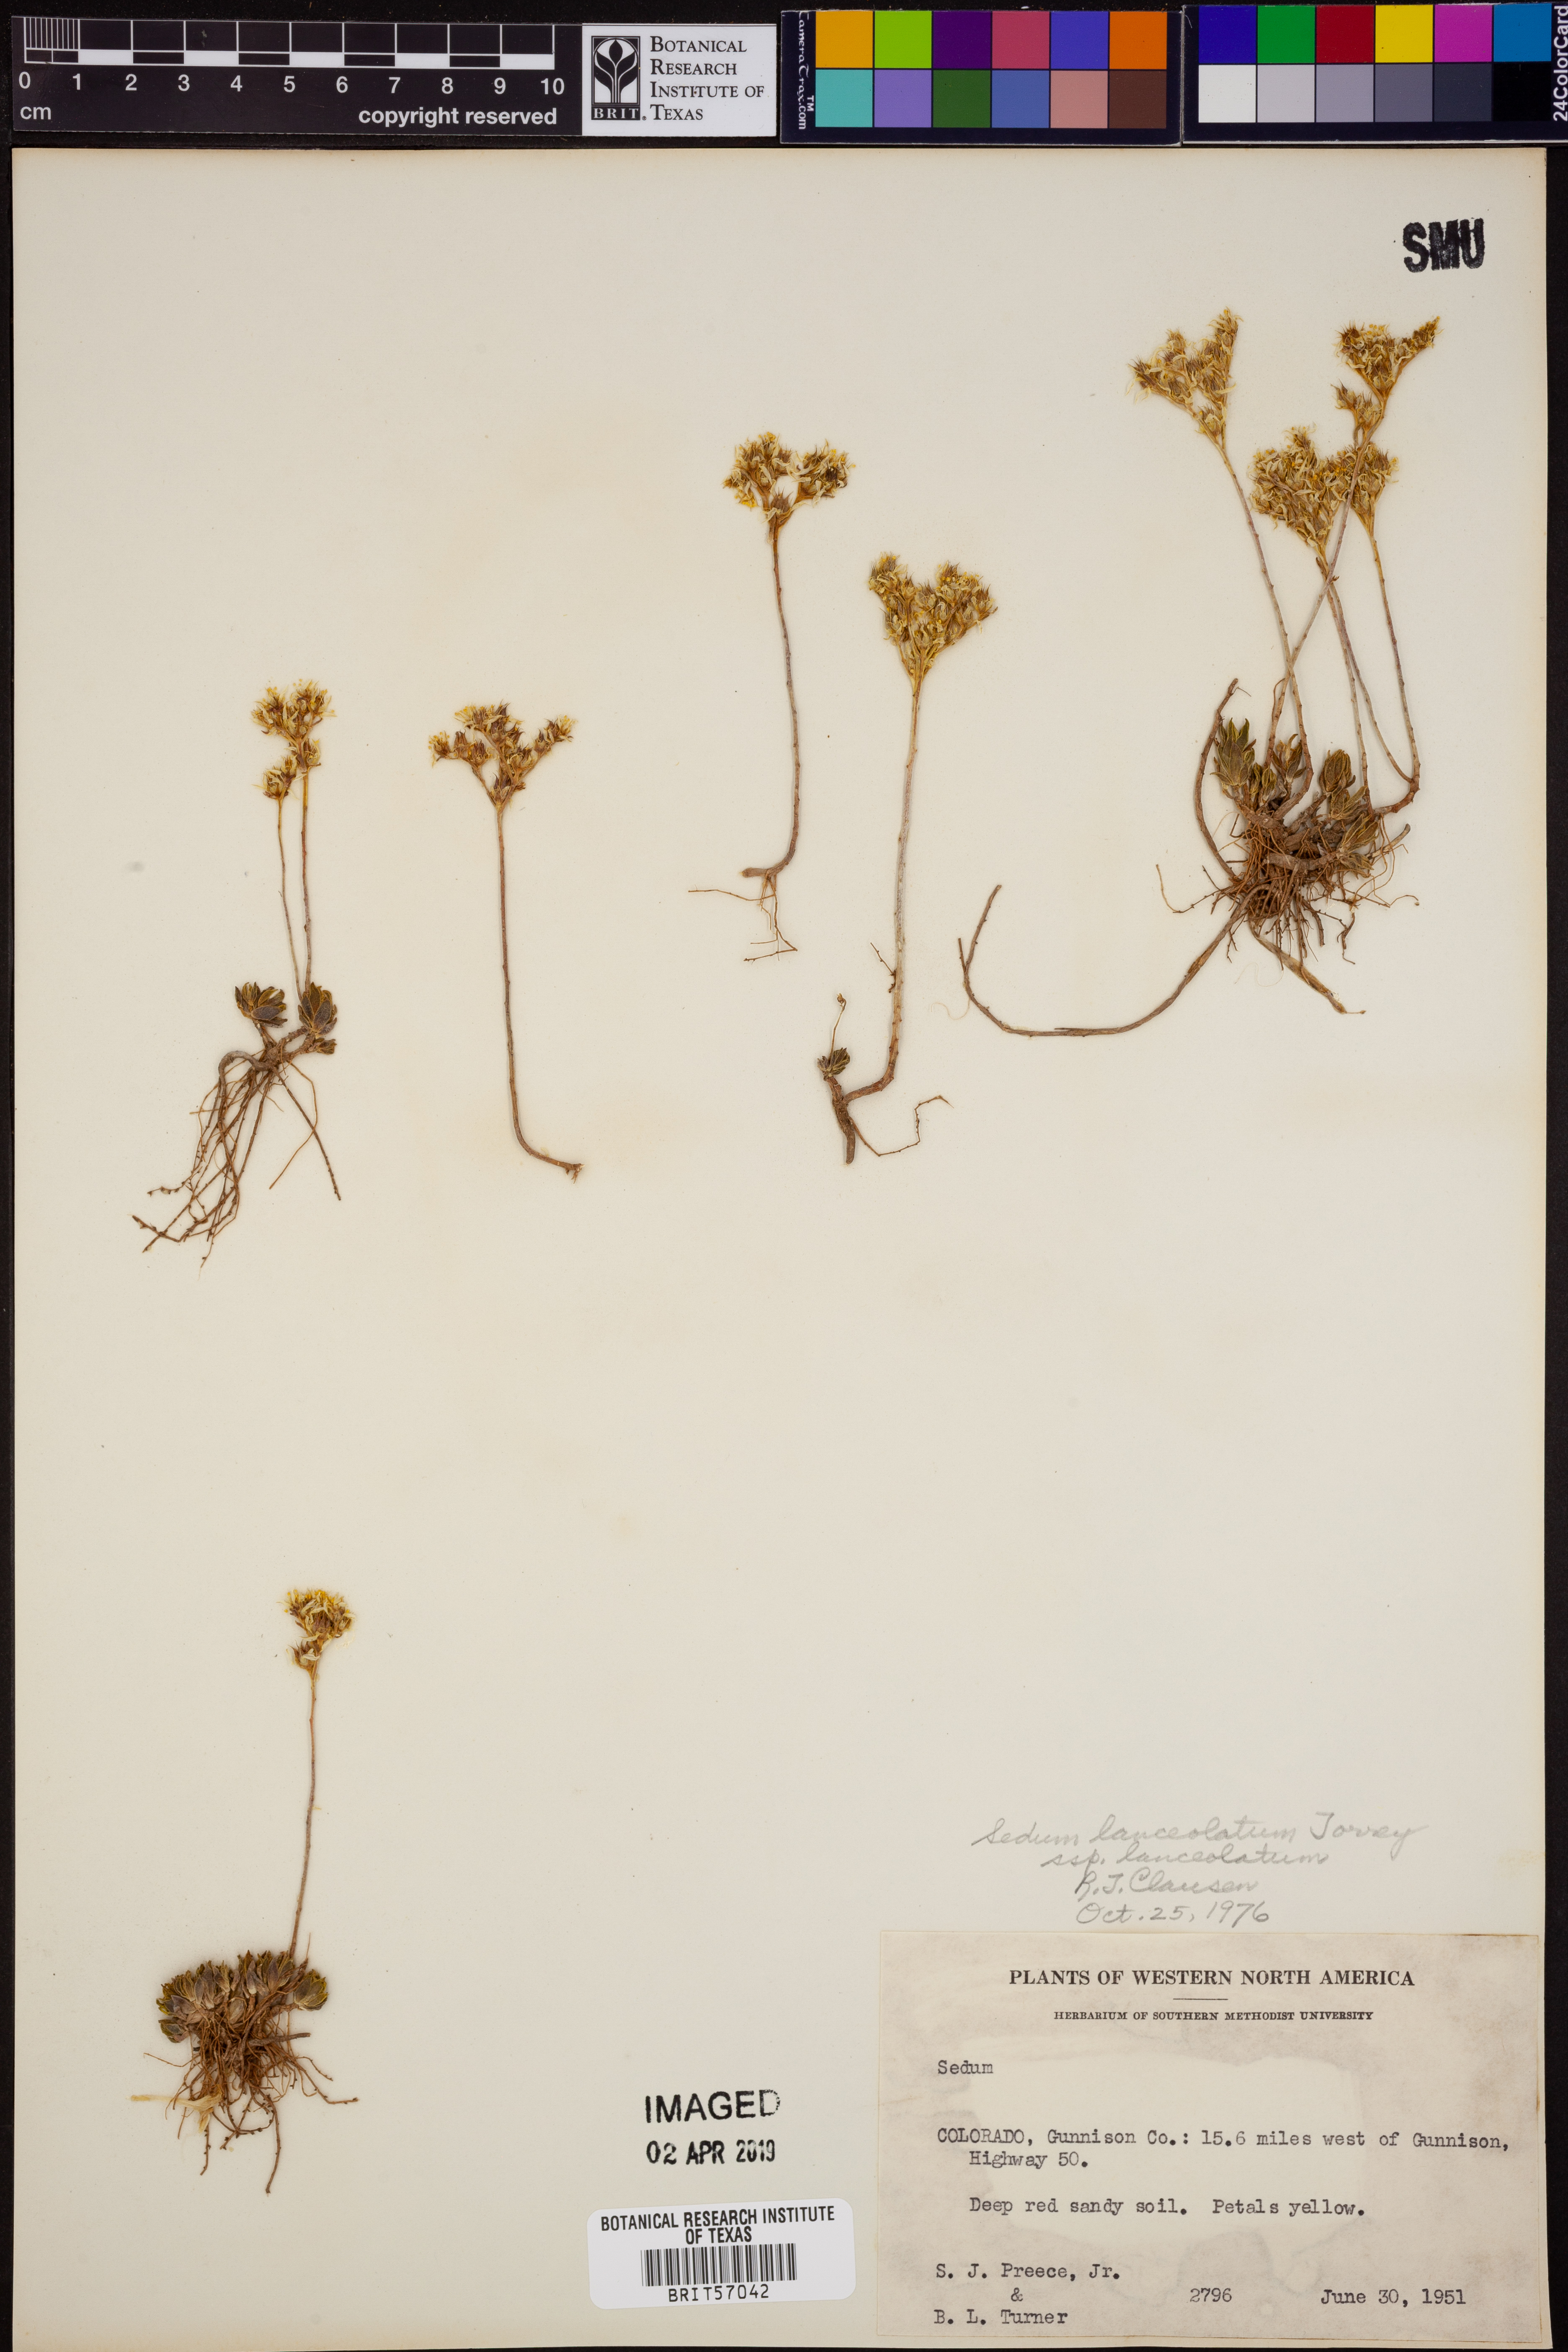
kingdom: Plantae
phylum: Tracheophyta
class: Magnoliopsida
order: Saxifragales
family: Crassulaceae
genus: Sedum
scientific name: Sedum lanceolatum
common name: Common stonecrop
